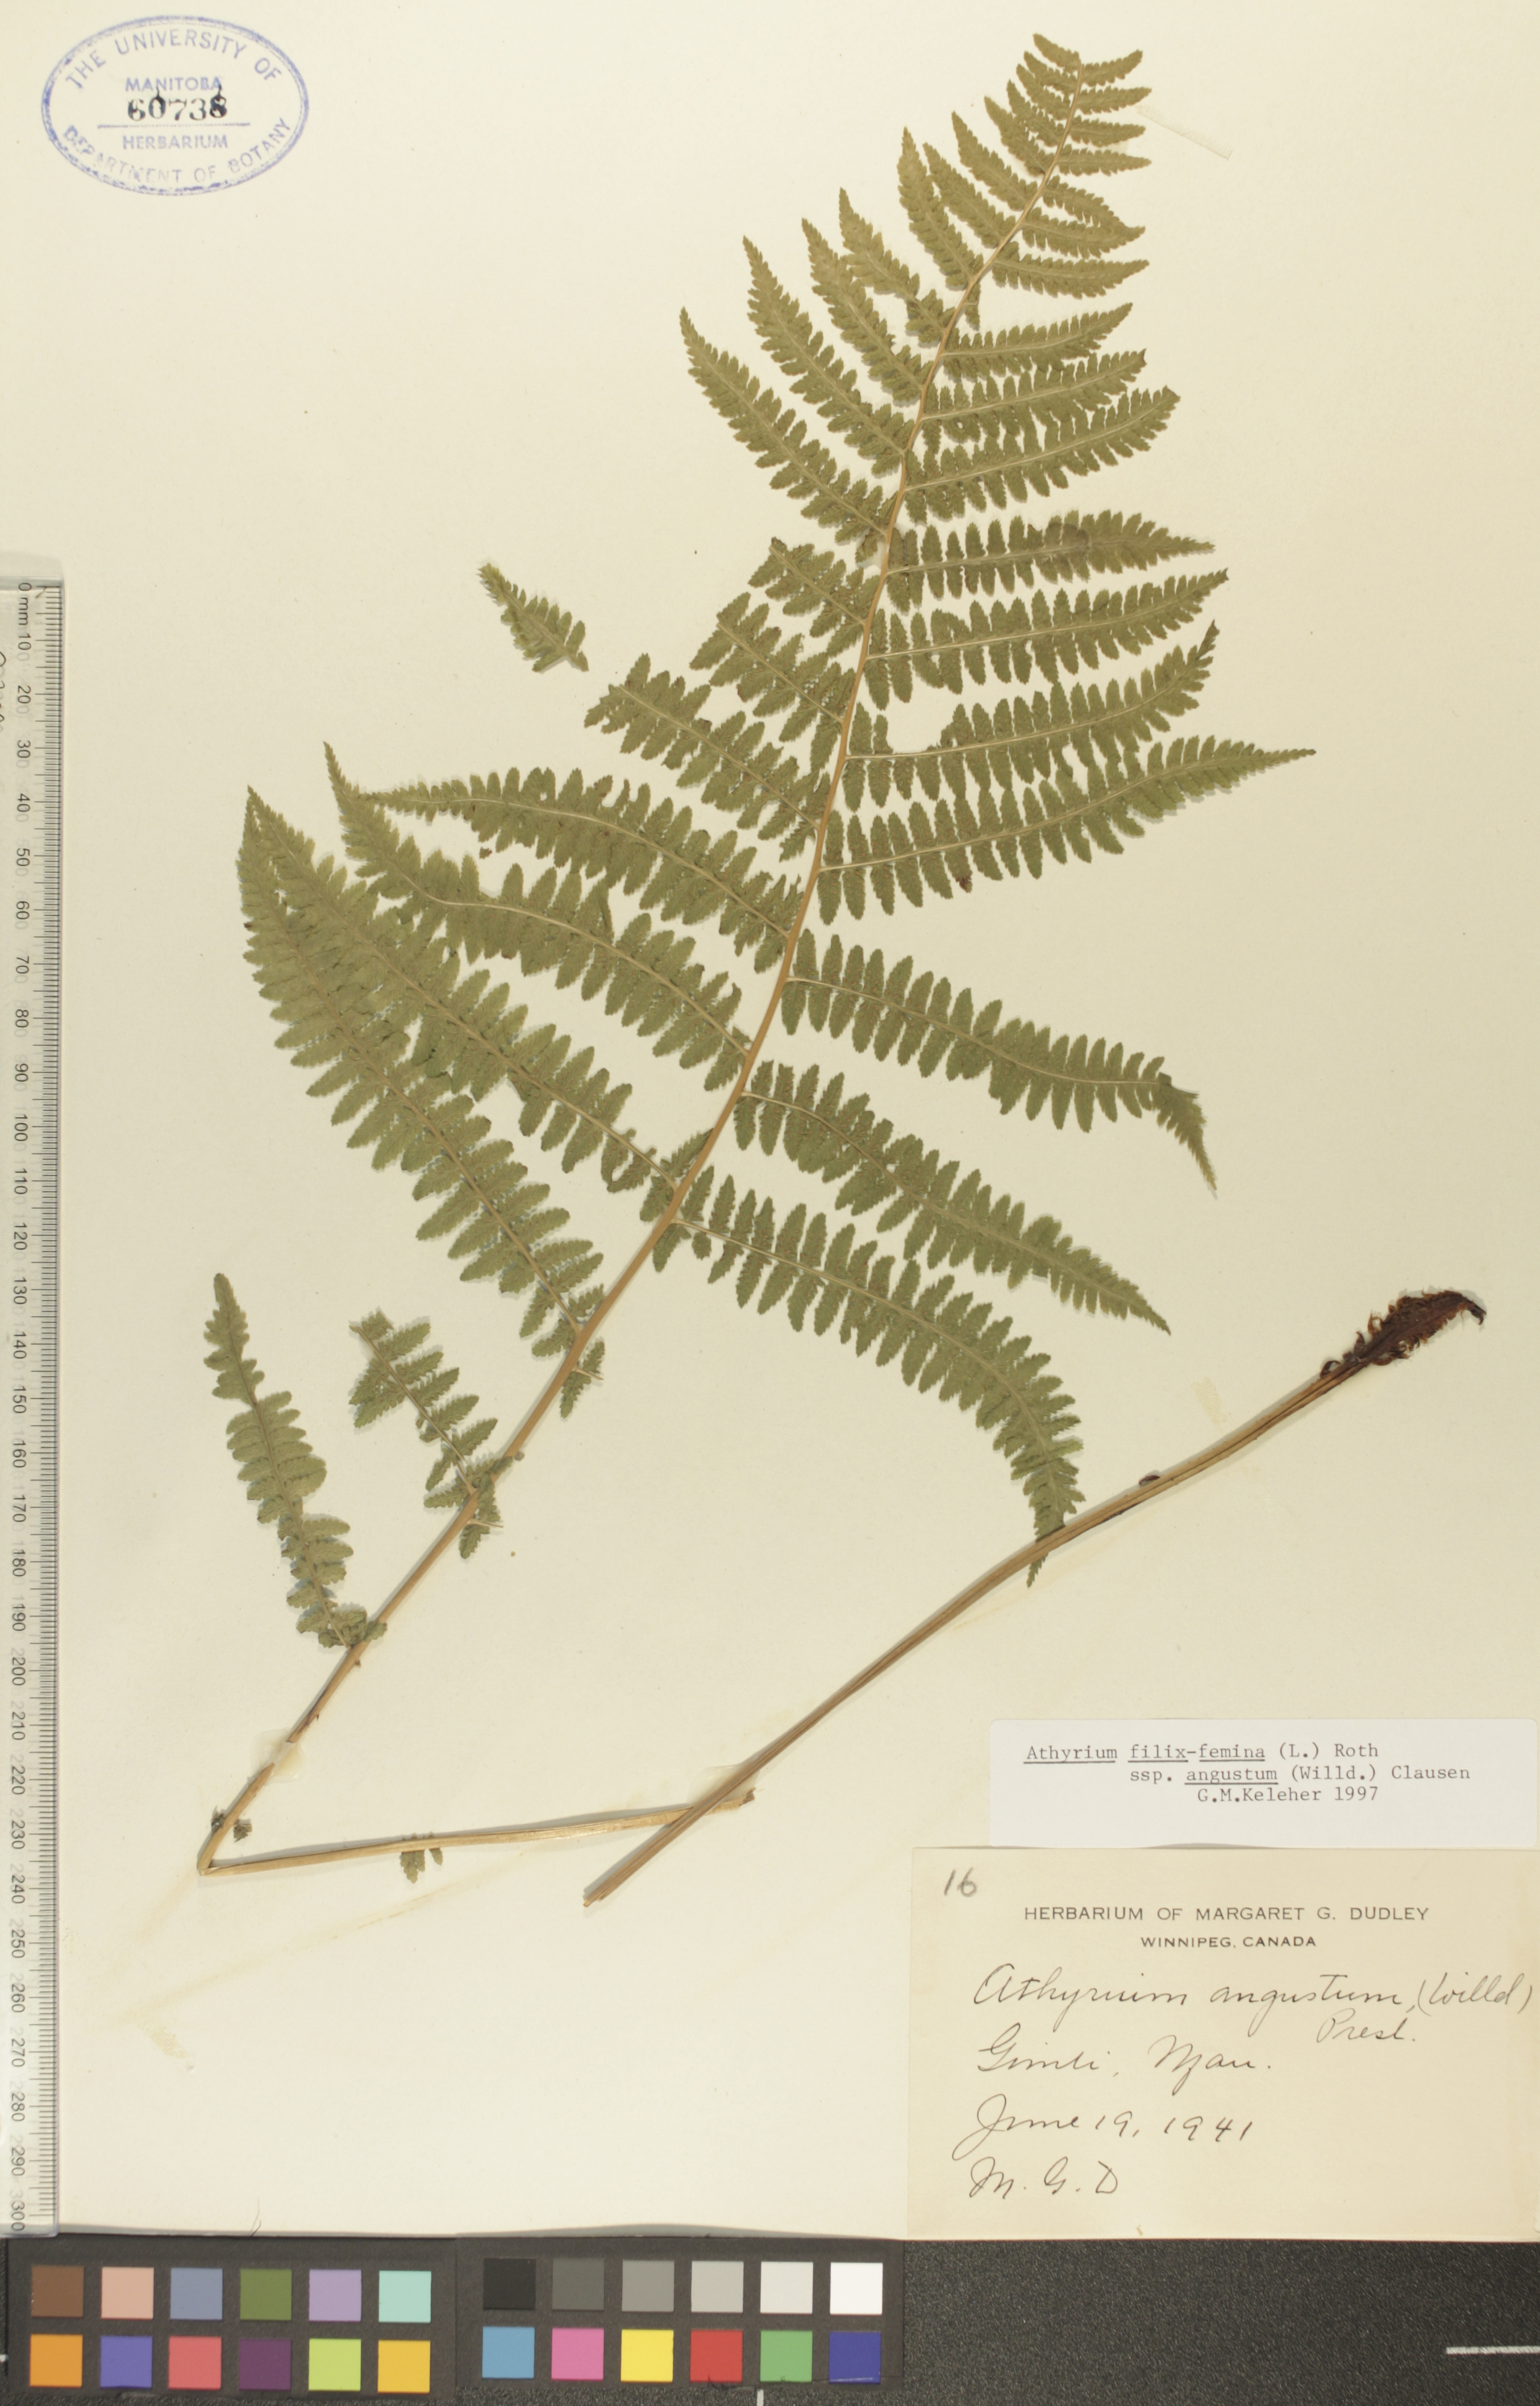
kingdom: Plantae
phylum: Tracheophyta
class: Polypodiopsida
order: Polypodiales
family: Athyriaceae
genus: Athyrium
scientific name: Athyrium angustum
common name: Northern lady fern
